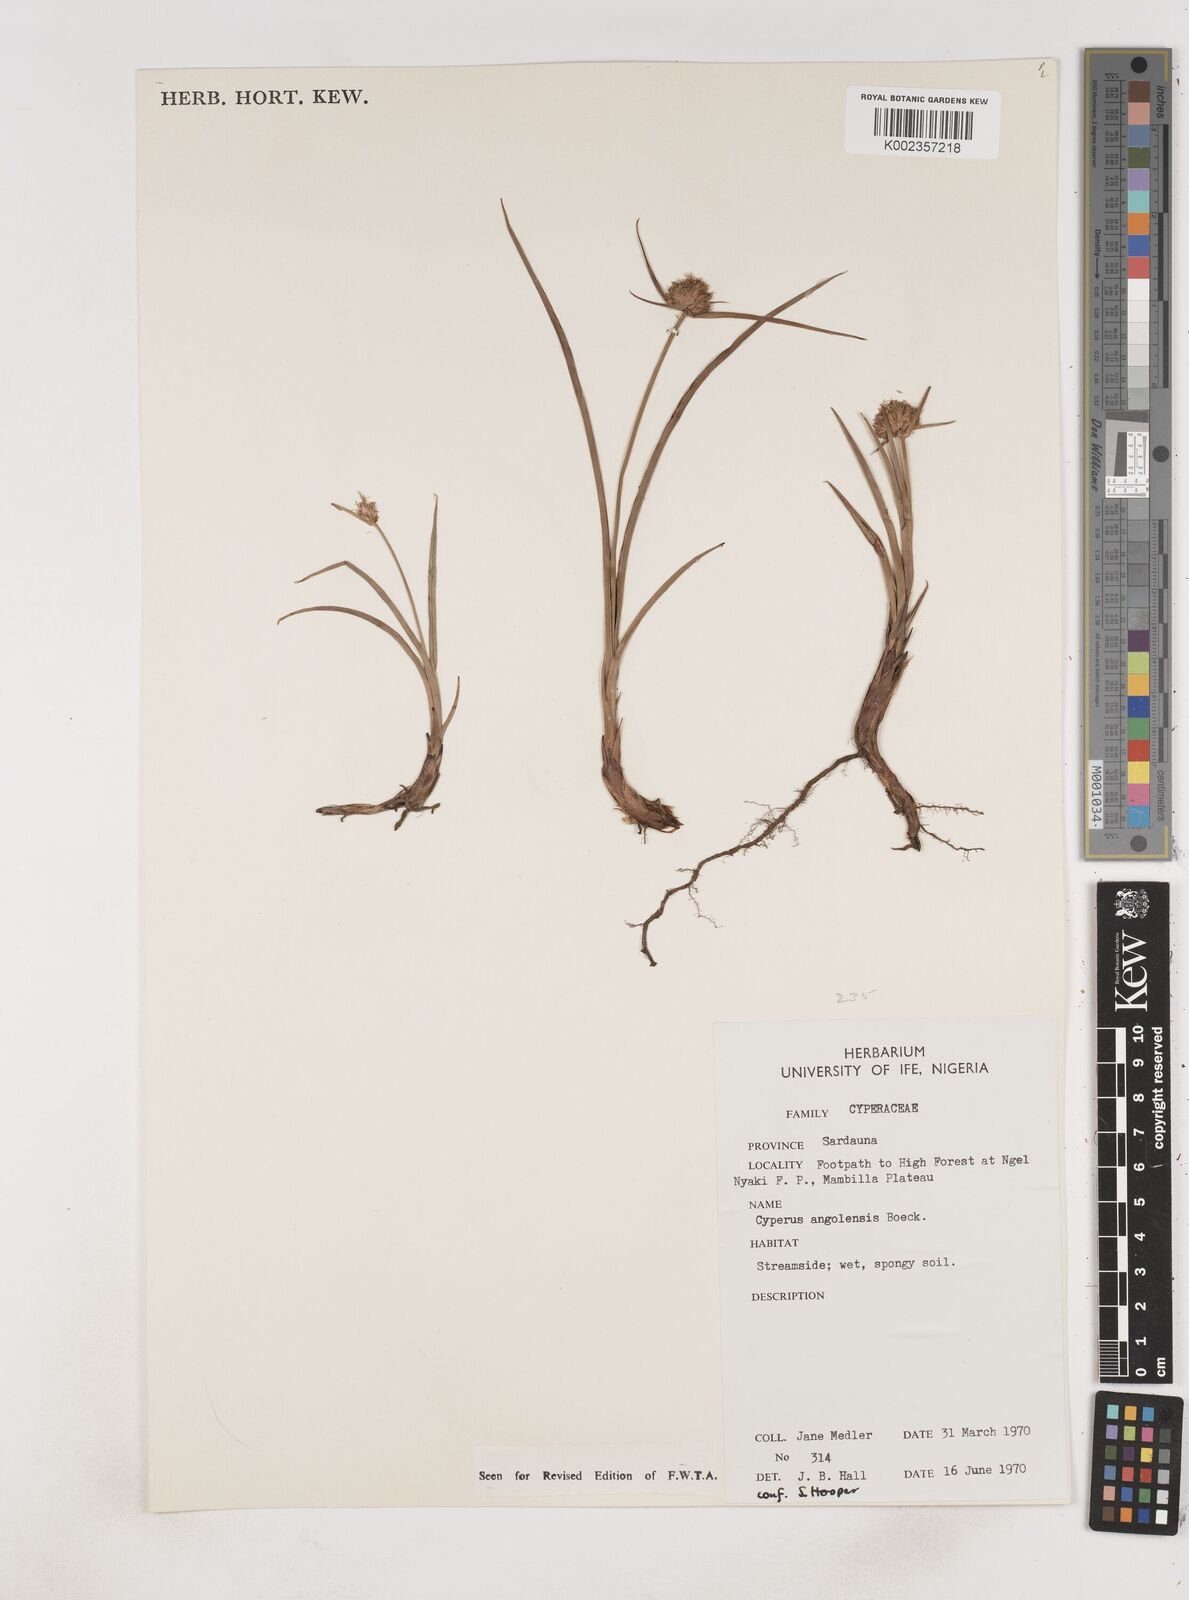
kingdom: Plantae
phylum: Tracheophyta
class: Liliopsida
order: Poales
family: Cyperaceae
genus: Cyperus
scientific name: Cyperus angolensis
